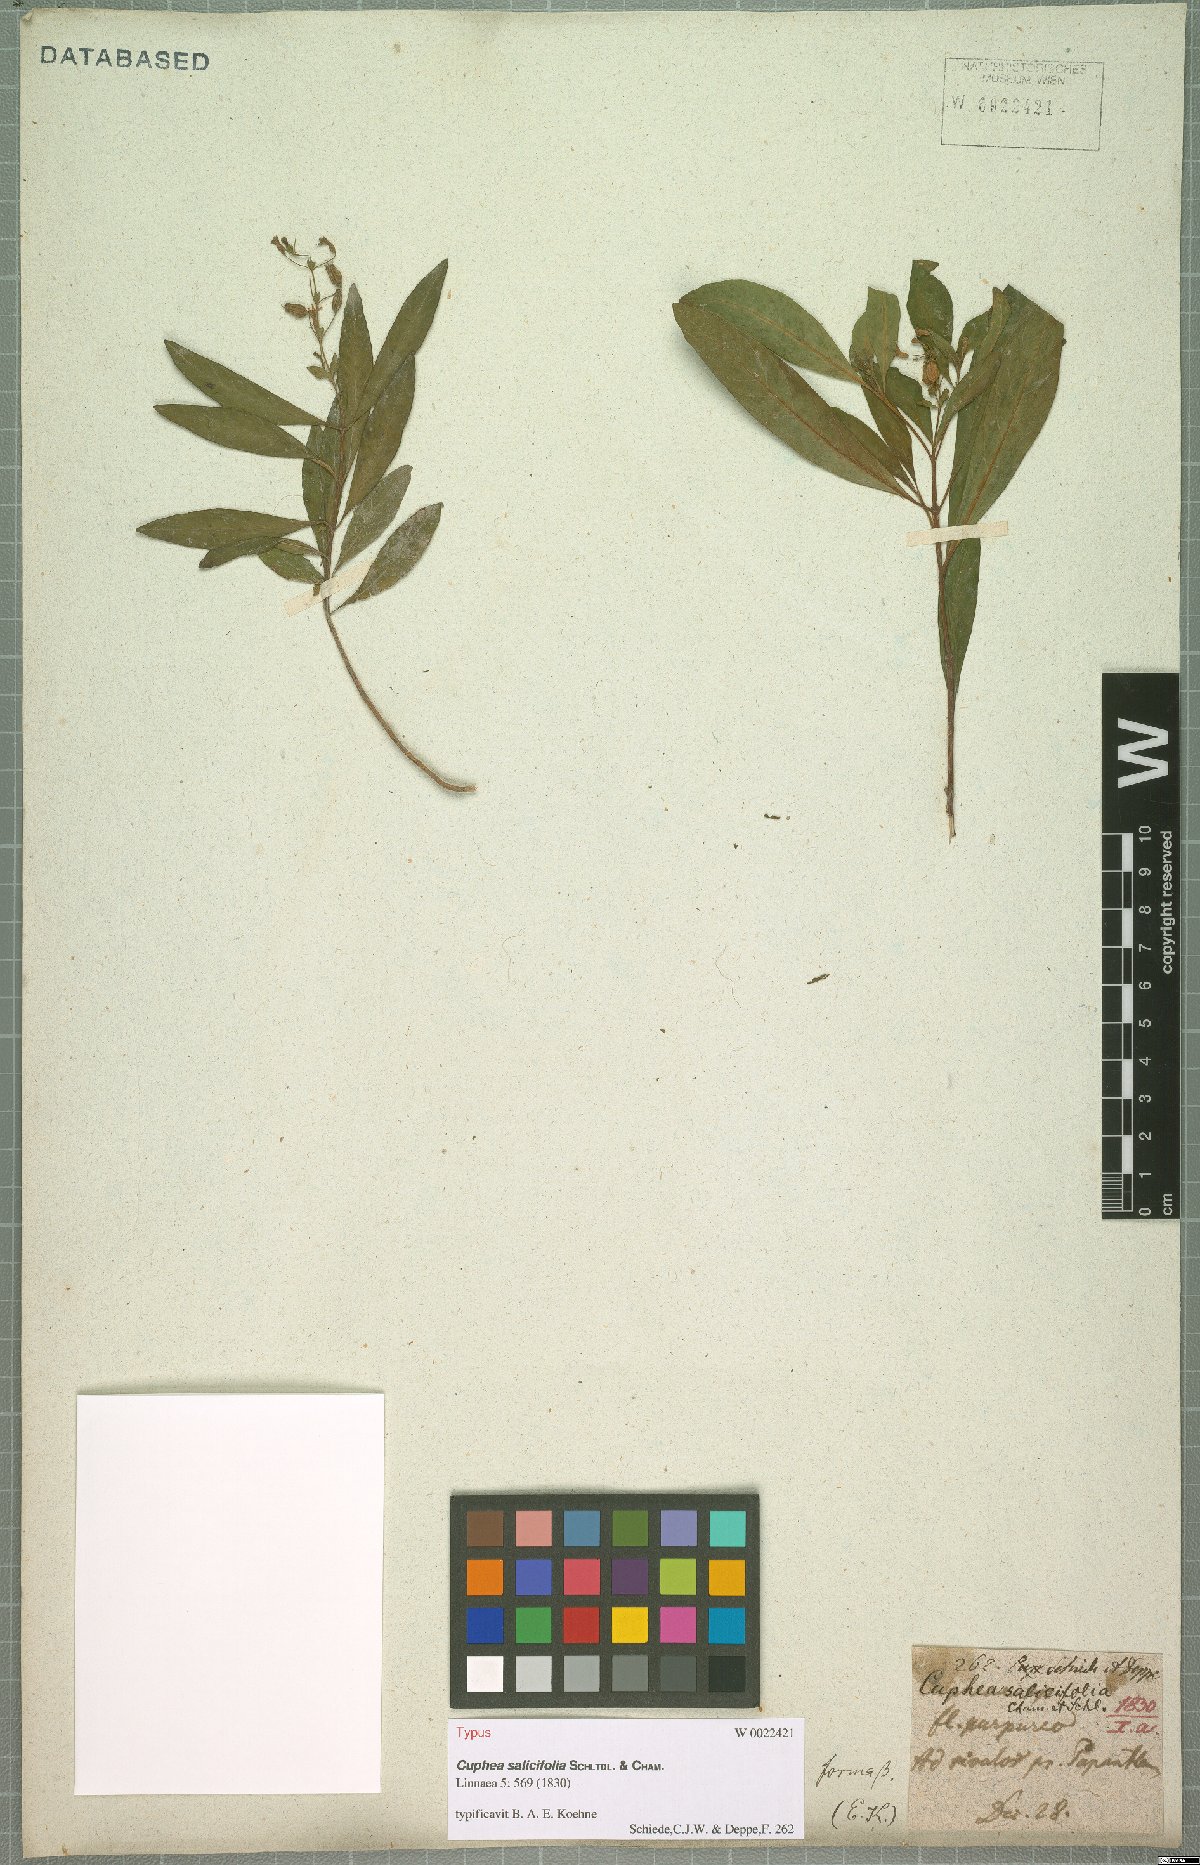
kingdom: Plantae
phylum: Tracheophyta
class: Magnoliopsida
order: Myrtales
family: Lythraceae
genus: Cuphea
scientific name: Cuphea salicifolia
